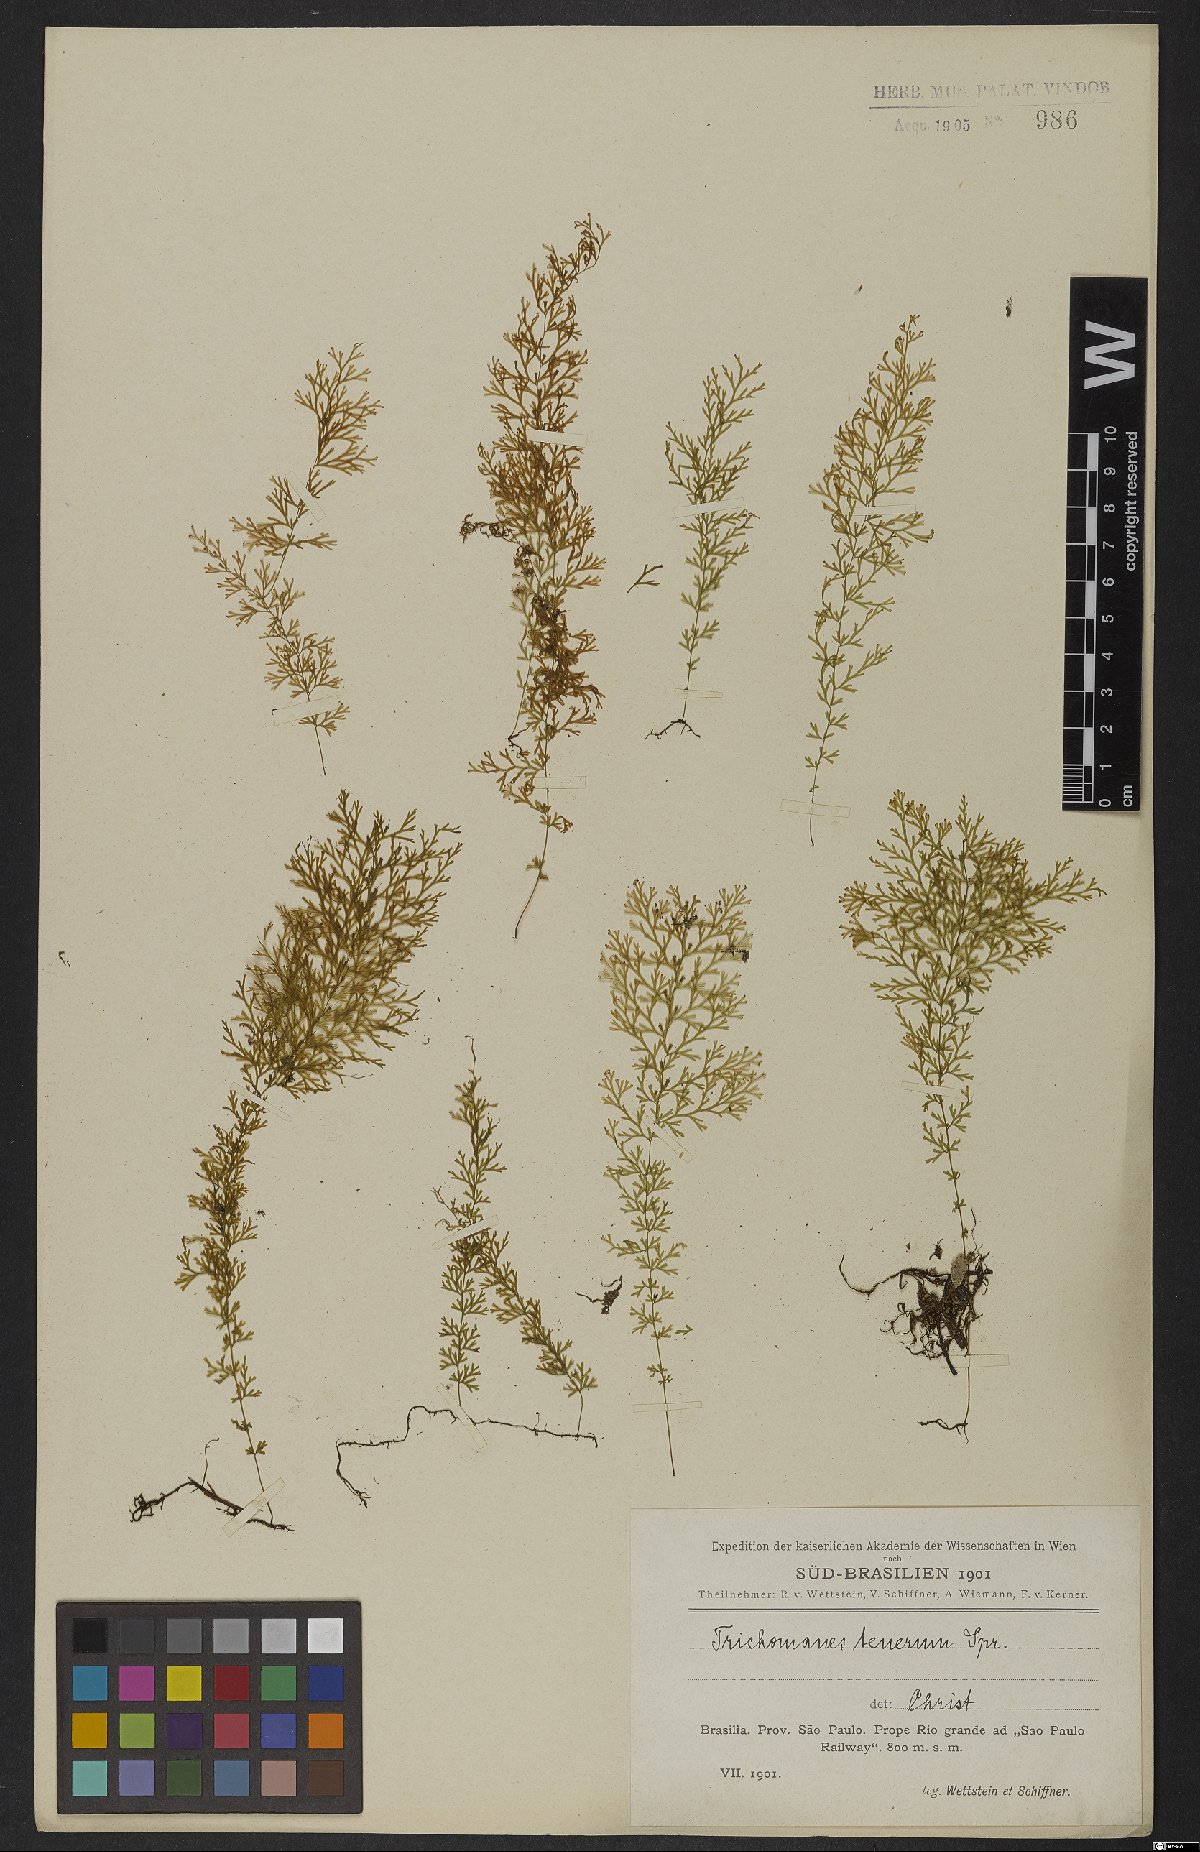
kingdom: Plantae
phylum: Tracheophyta
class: Polypodiopsida
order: Polypodiales
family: Polypodiaceae
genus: Microgramma
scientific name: Microgramma tecta
